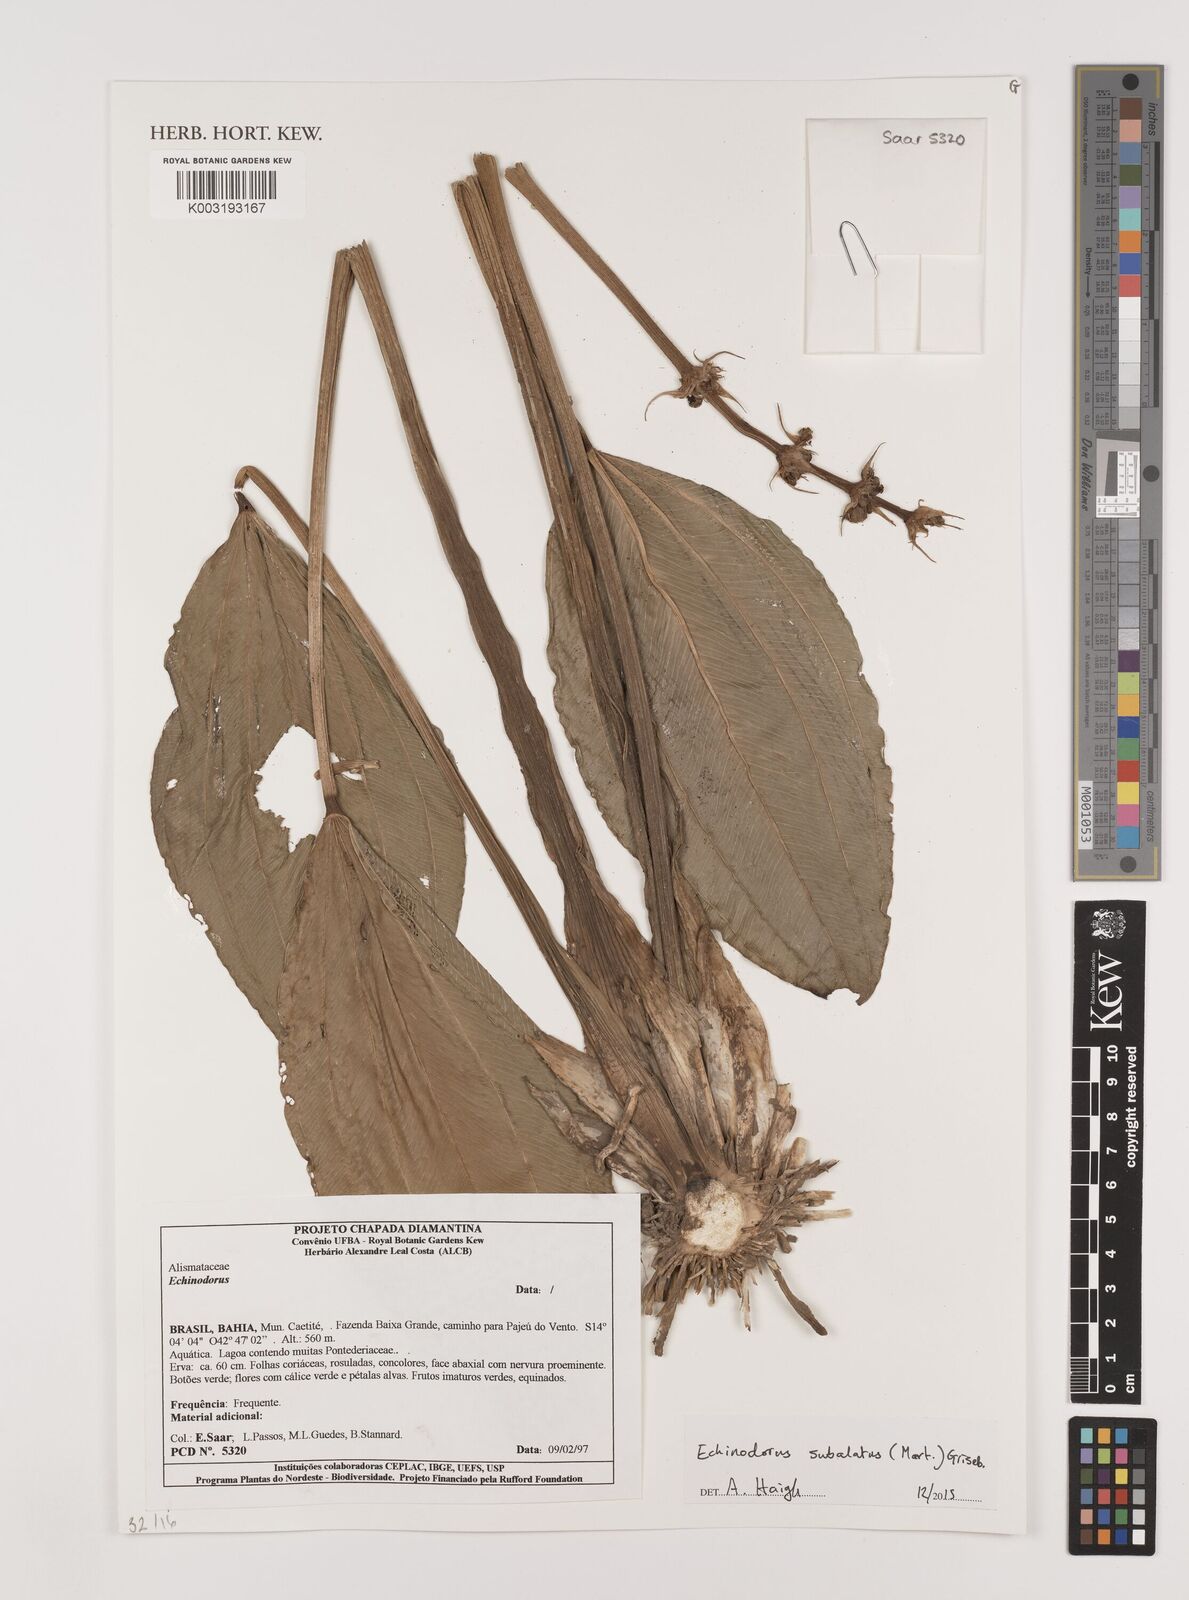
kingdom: Plantae
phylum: Tracheophyta
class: Liliopsida
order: Alismatales
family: Alismataceae
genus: Aquarius
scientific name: Aquarius subulatus
